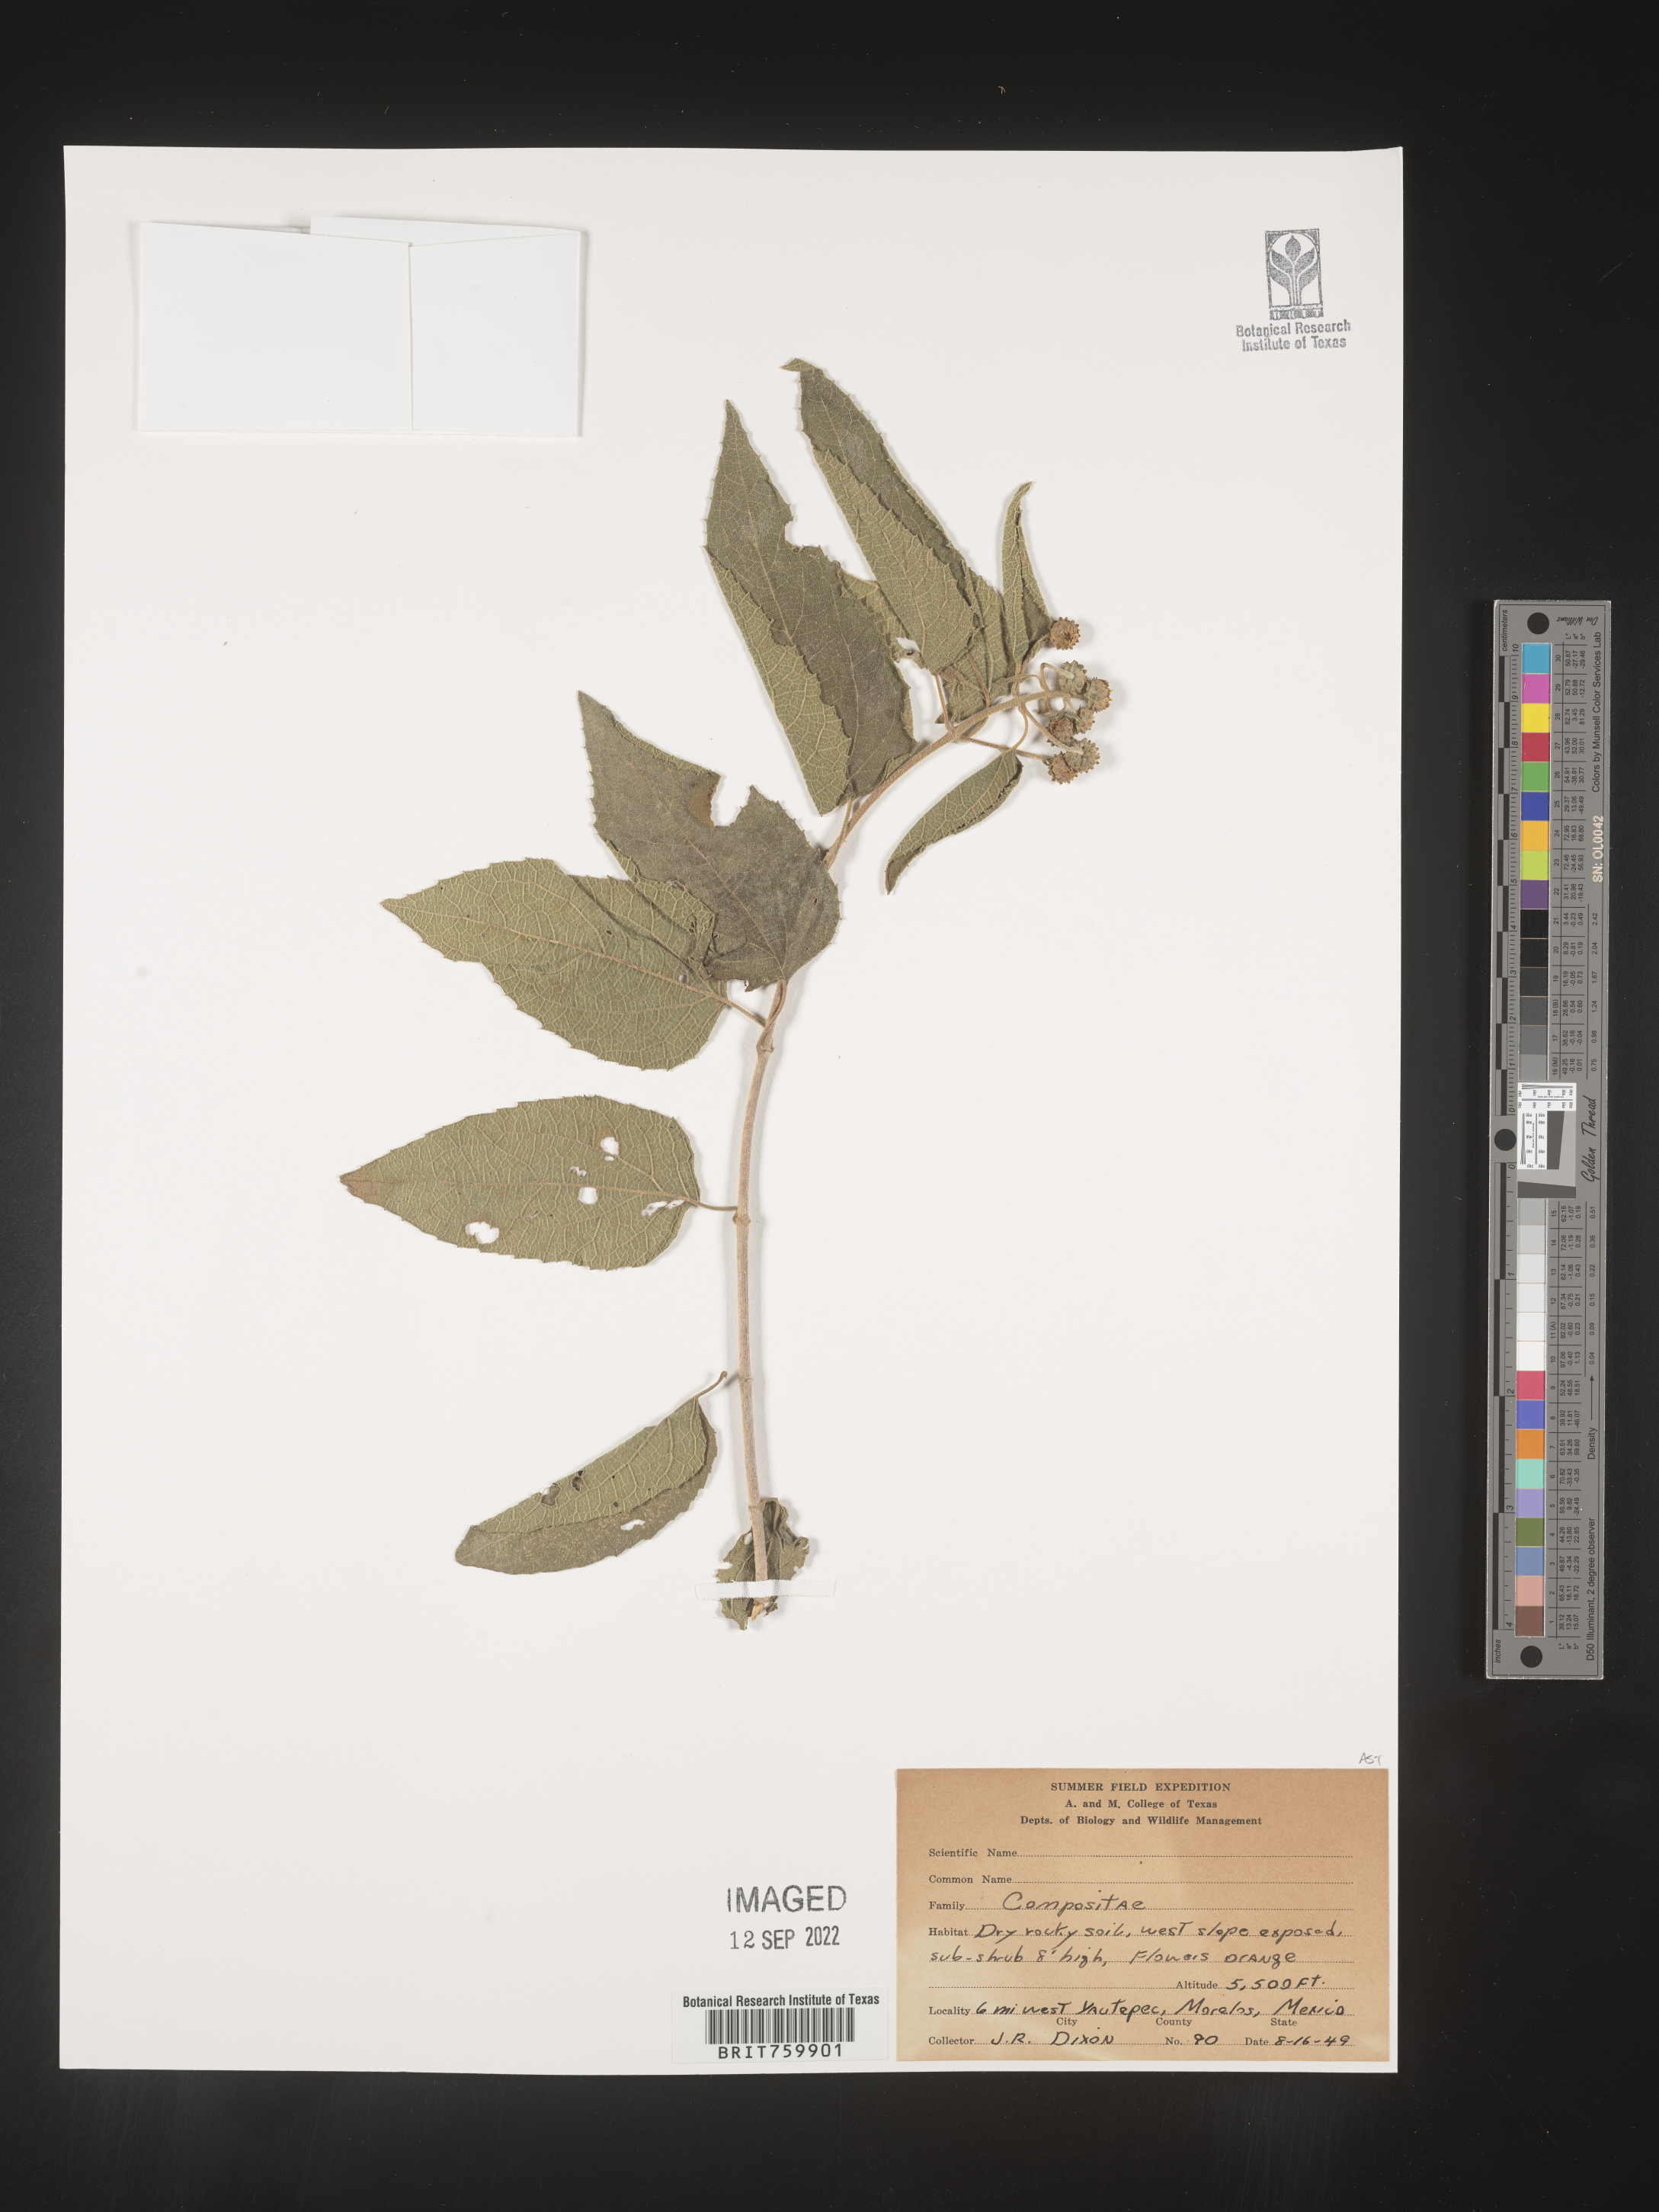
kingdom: Plantae
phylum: Tracheophyta
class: Magnoliopsida
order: Asterales
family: Asteraceae
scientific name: Asteraceae
